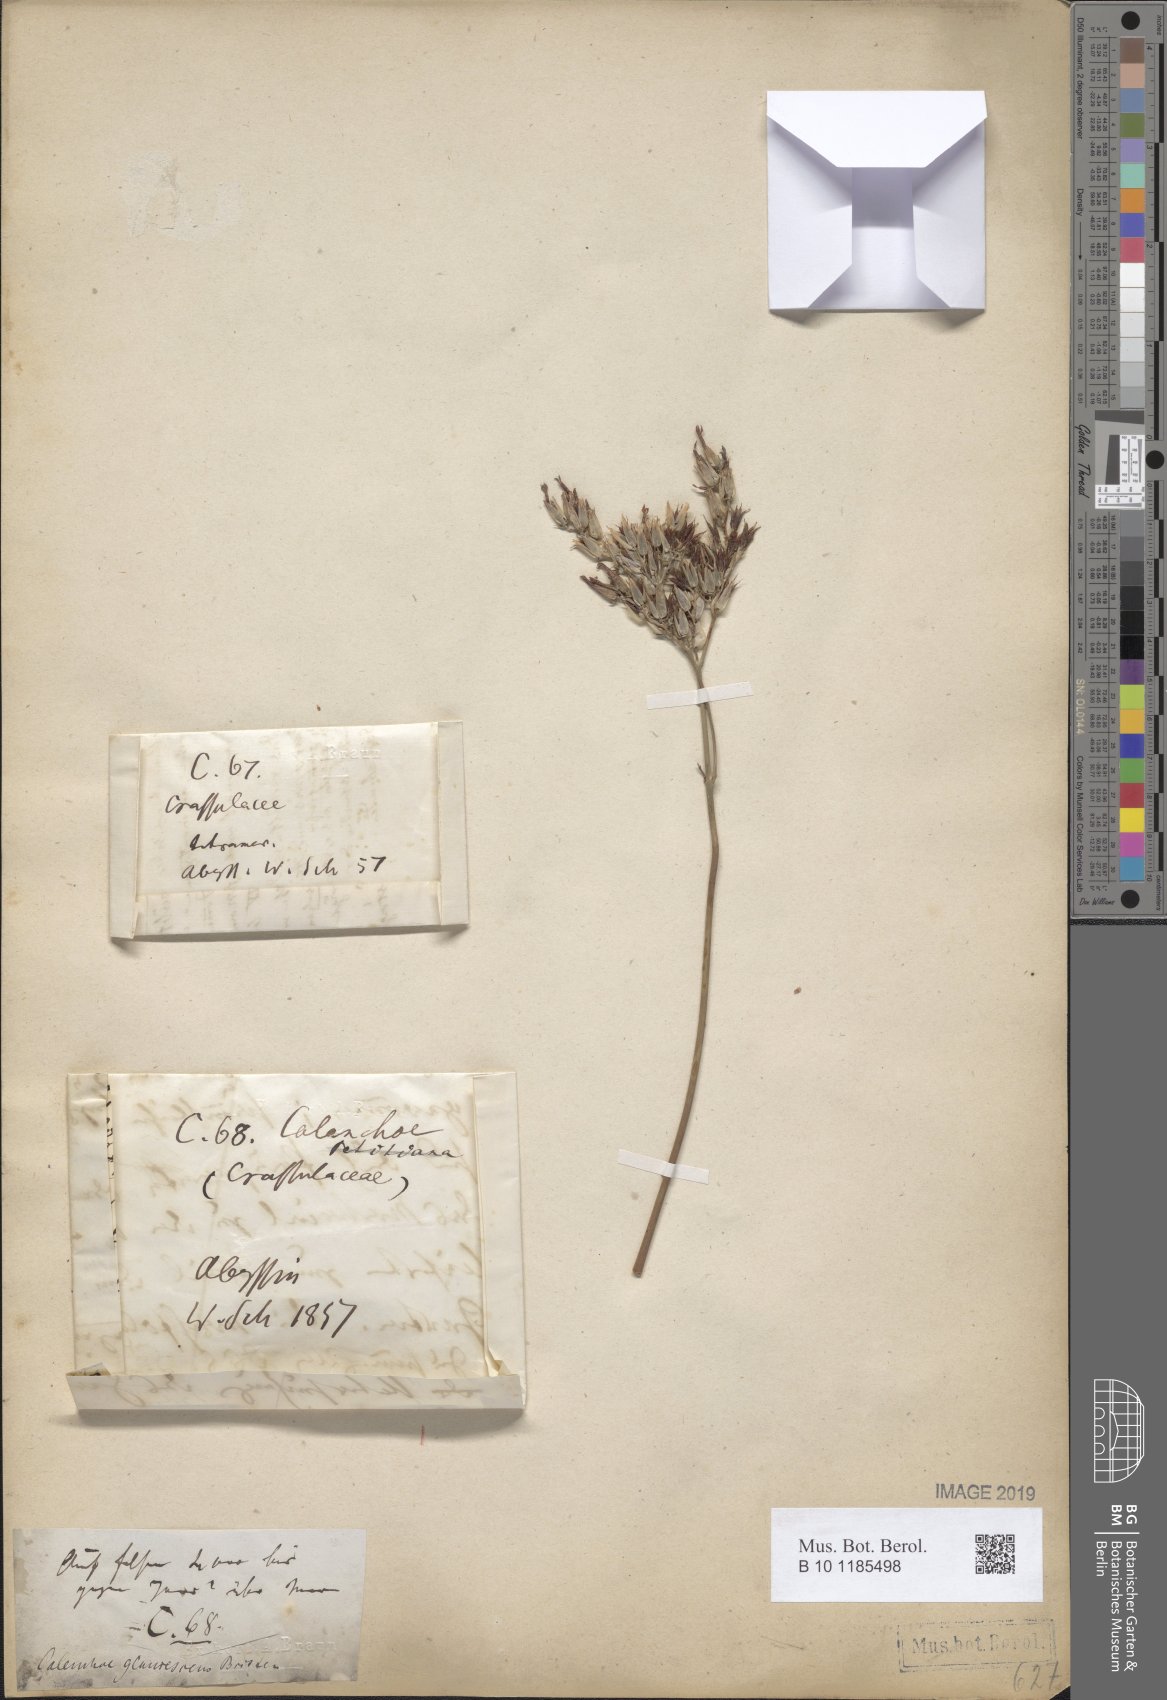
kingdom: Plantae
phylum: Tracheophyta
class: Magnoliopsida
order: Saxifragales
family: Crassulaceae
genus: Kalanchoe
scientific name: Kalanchoe glaucescens
